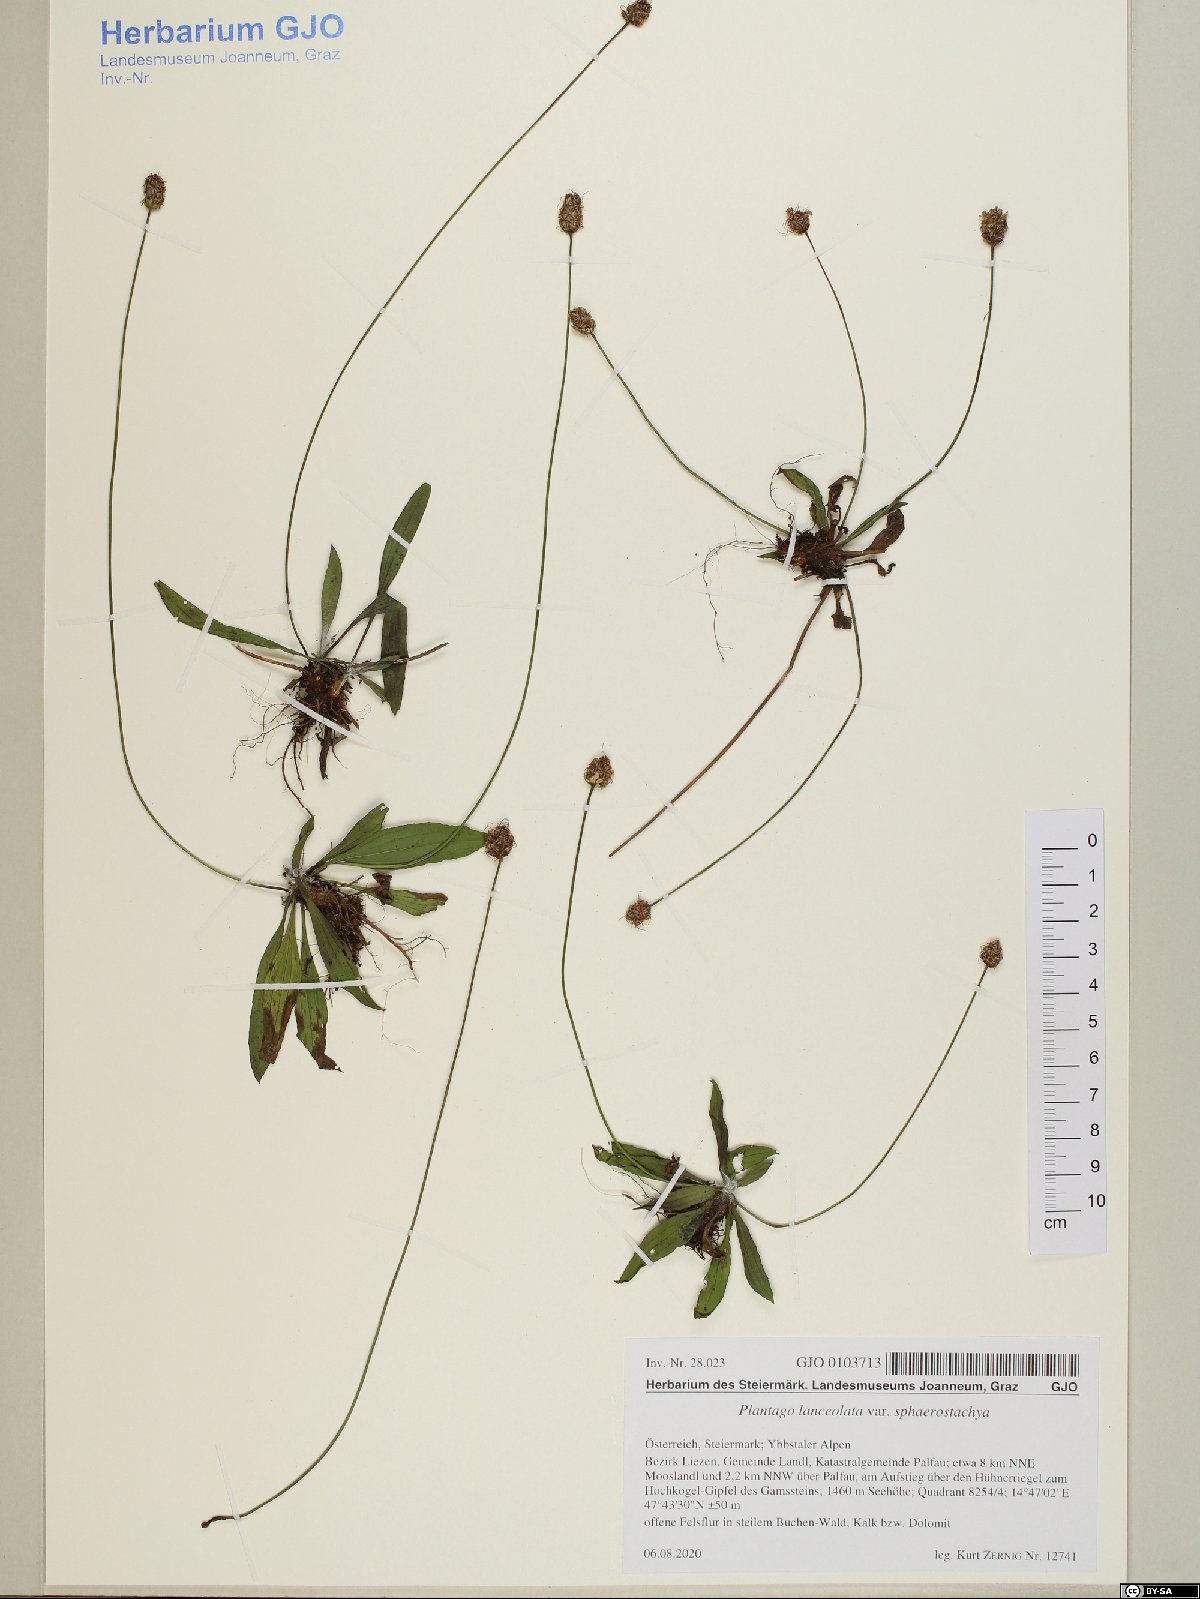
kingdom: Plantae
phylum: Tracheophyta
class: Magnoliopsida
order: Lamiales
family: Plantaginaceae
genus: Plantago
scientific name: Plantago lanceolata
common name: Ribwort plantain
